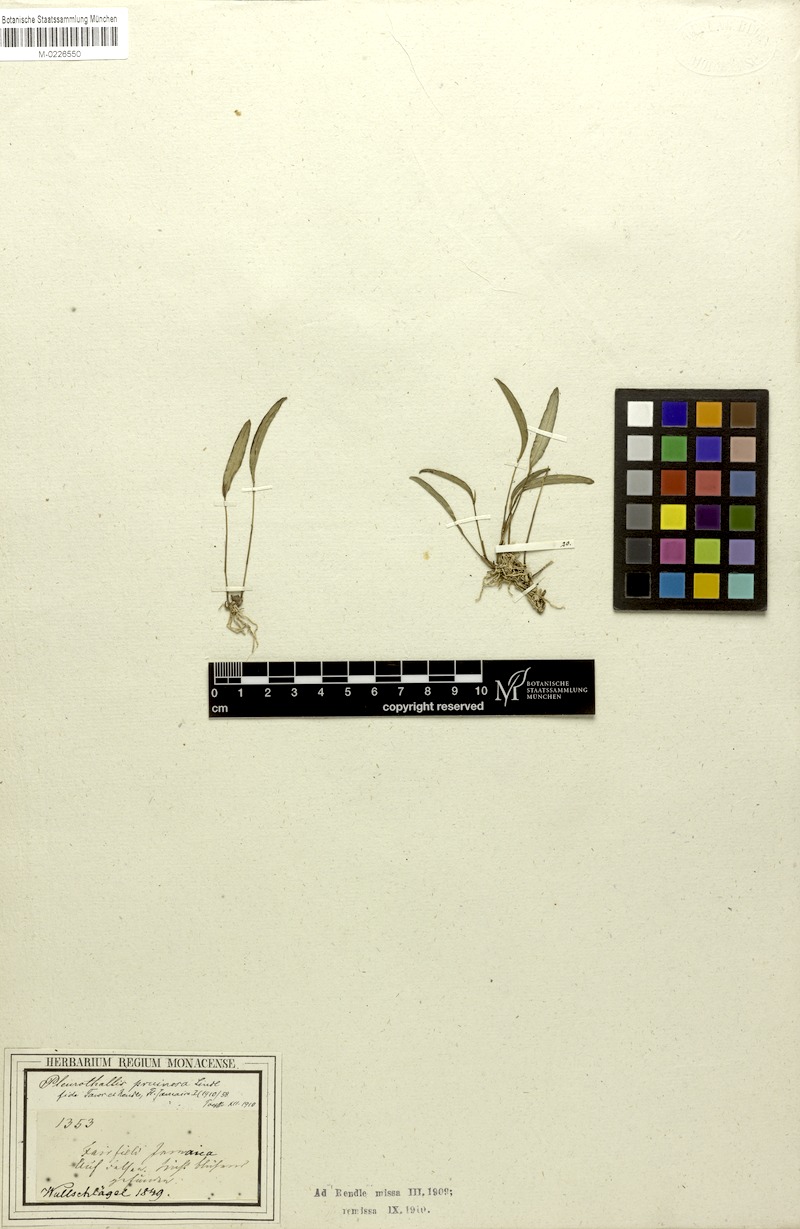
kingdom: Plantae
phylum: Tracheophyta
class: Liliopsida
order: Asparagales
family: Orchidaceae
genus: Pleurothallis
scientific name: Pleurothallis pruinosa
